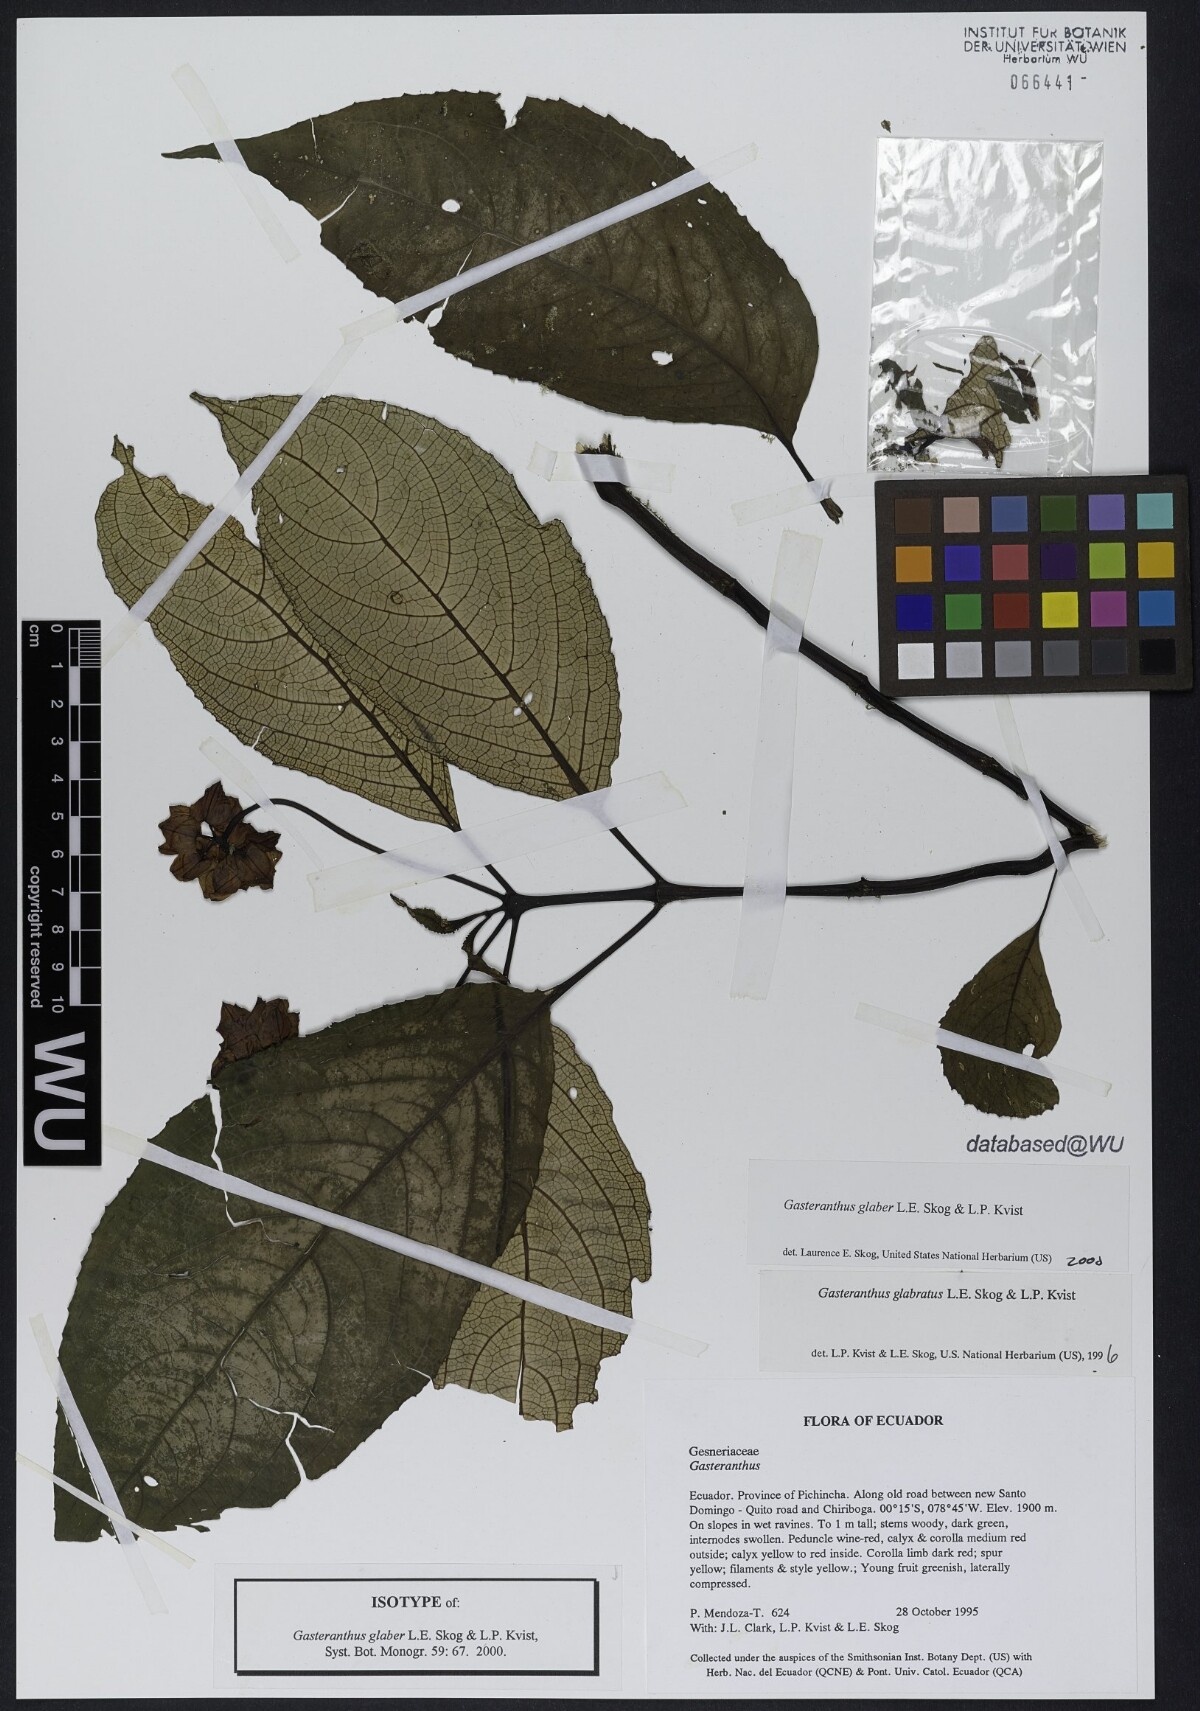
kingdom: Plantae
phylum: Tracheophyta
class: Magnoliopsida
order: Lamiales
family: Gesneriaceae
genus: Gasteranthus
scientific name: Gasteranthus glaber
